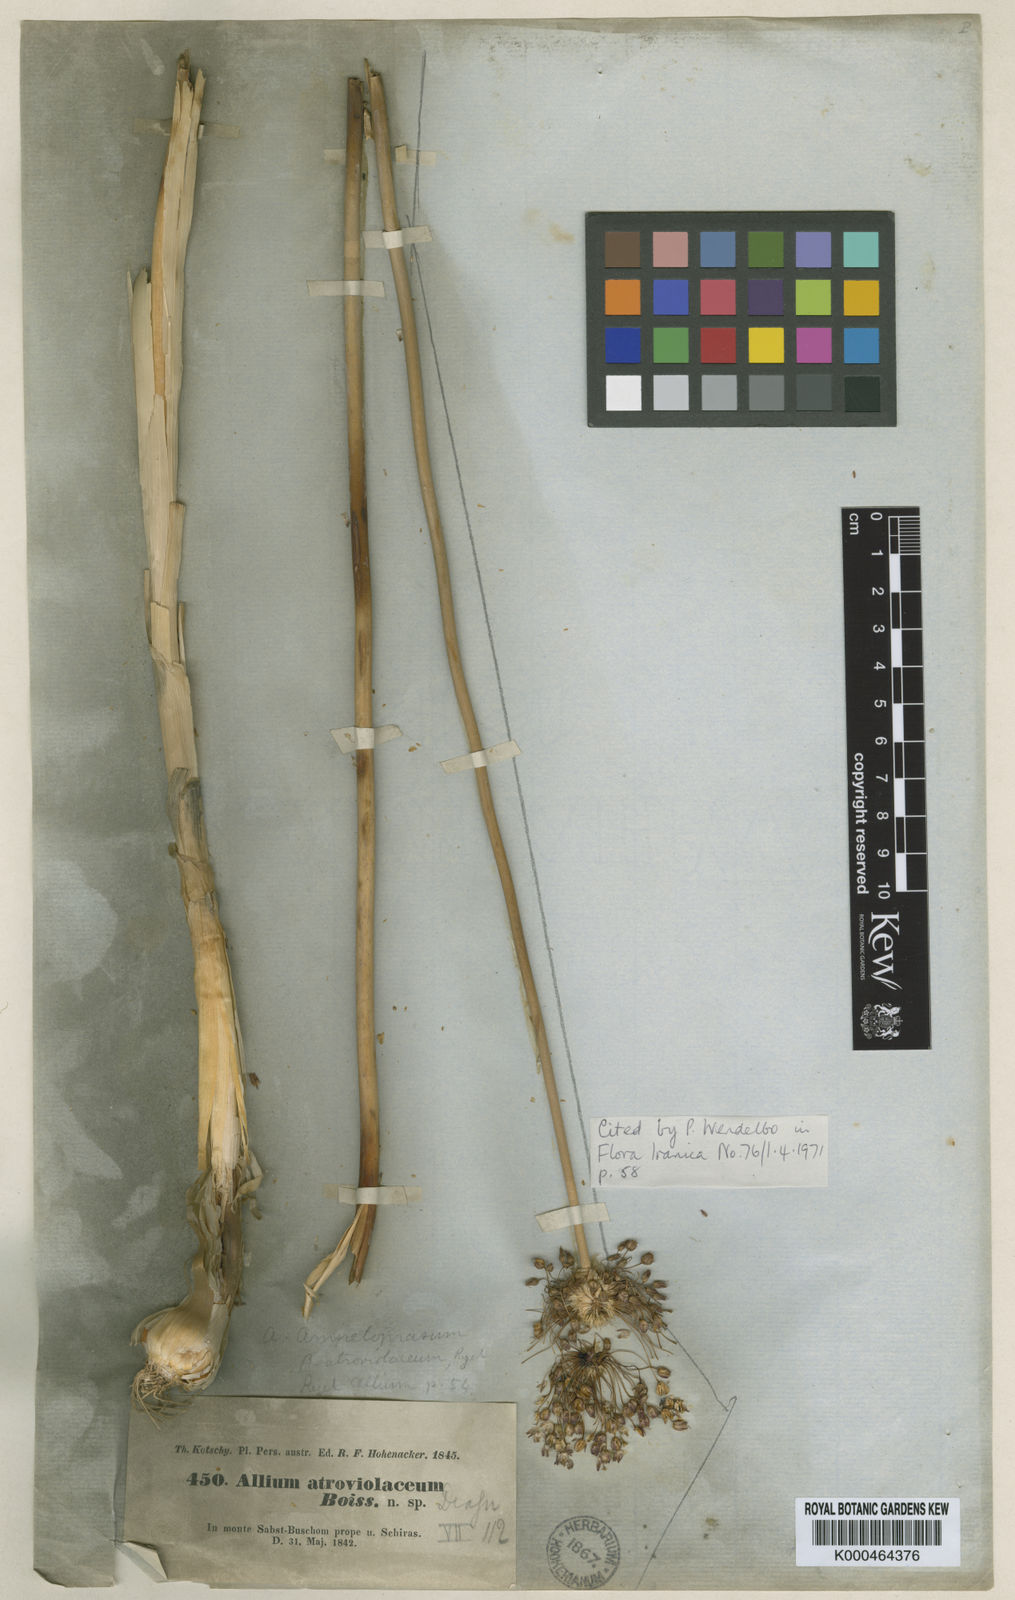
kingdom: Plantae
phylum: Tracheophyta
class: Liliopsida
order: Asparagales
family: Amaryllidaceae
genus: Allium
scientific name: Allium
